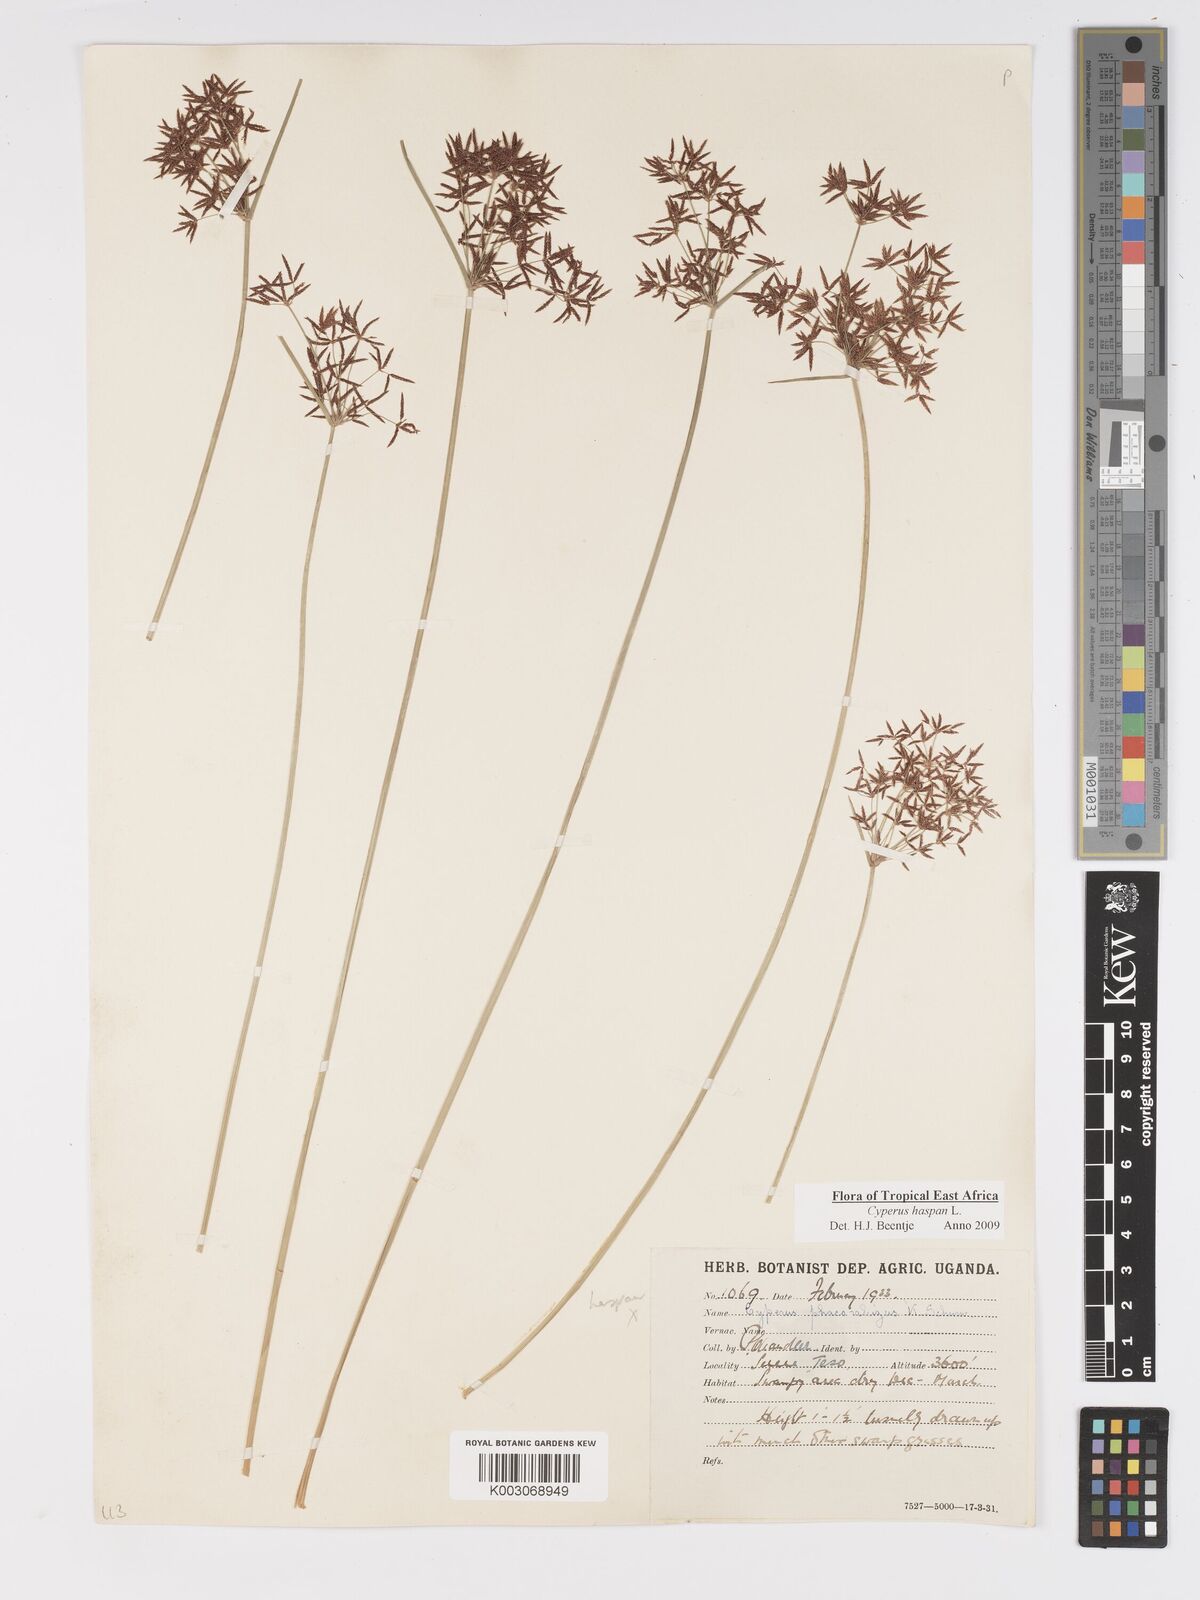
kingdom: Plantae
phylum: Tracheophyta
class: Liliopsida
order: Poales
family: Cyperaceae
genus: Cyperus
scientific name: Cyperus haspan
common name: Haspan flatsedge
